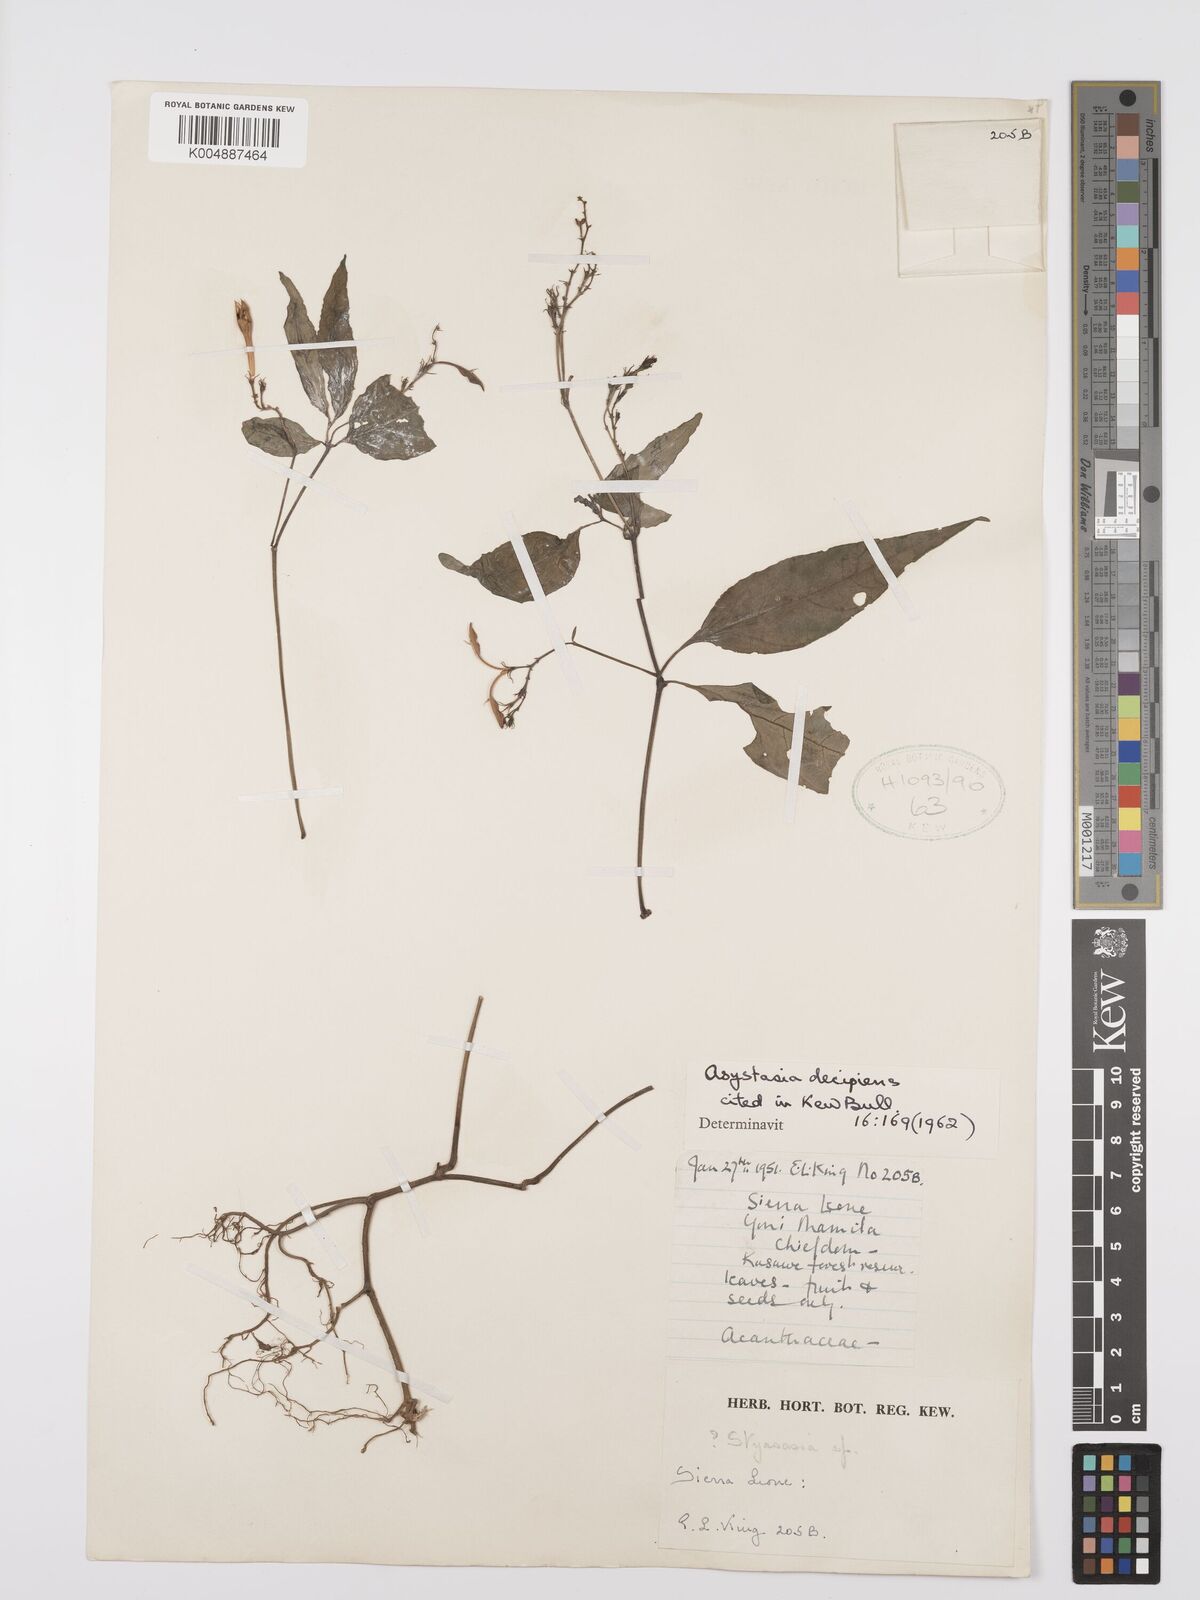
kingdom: Plantae
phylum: Tracheophyta
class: Magnoliopsida
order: Lamiales
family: Acanthaceae
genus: Asystasia
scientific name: Asystasia leptostachya
